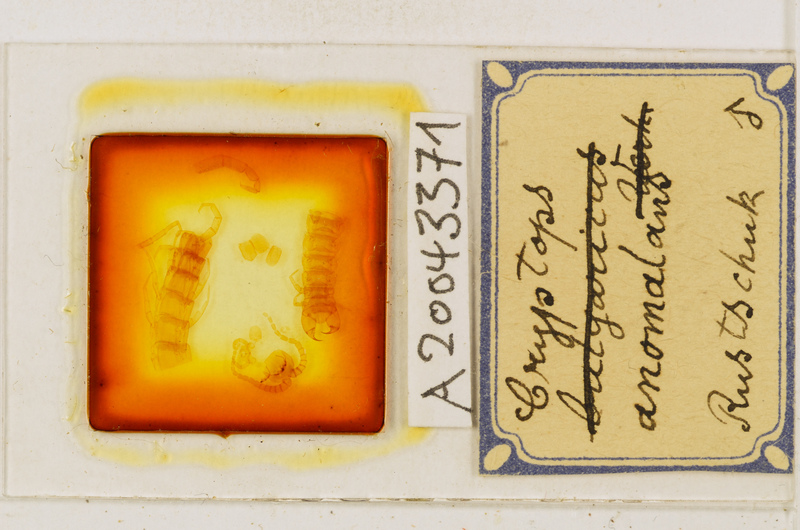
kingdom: Animalia
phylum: Arthropoda
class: Chilopoda
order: Scolopendromorpha
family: Cryptopidae
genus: Cryptops
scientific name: Cryptops anomalans
